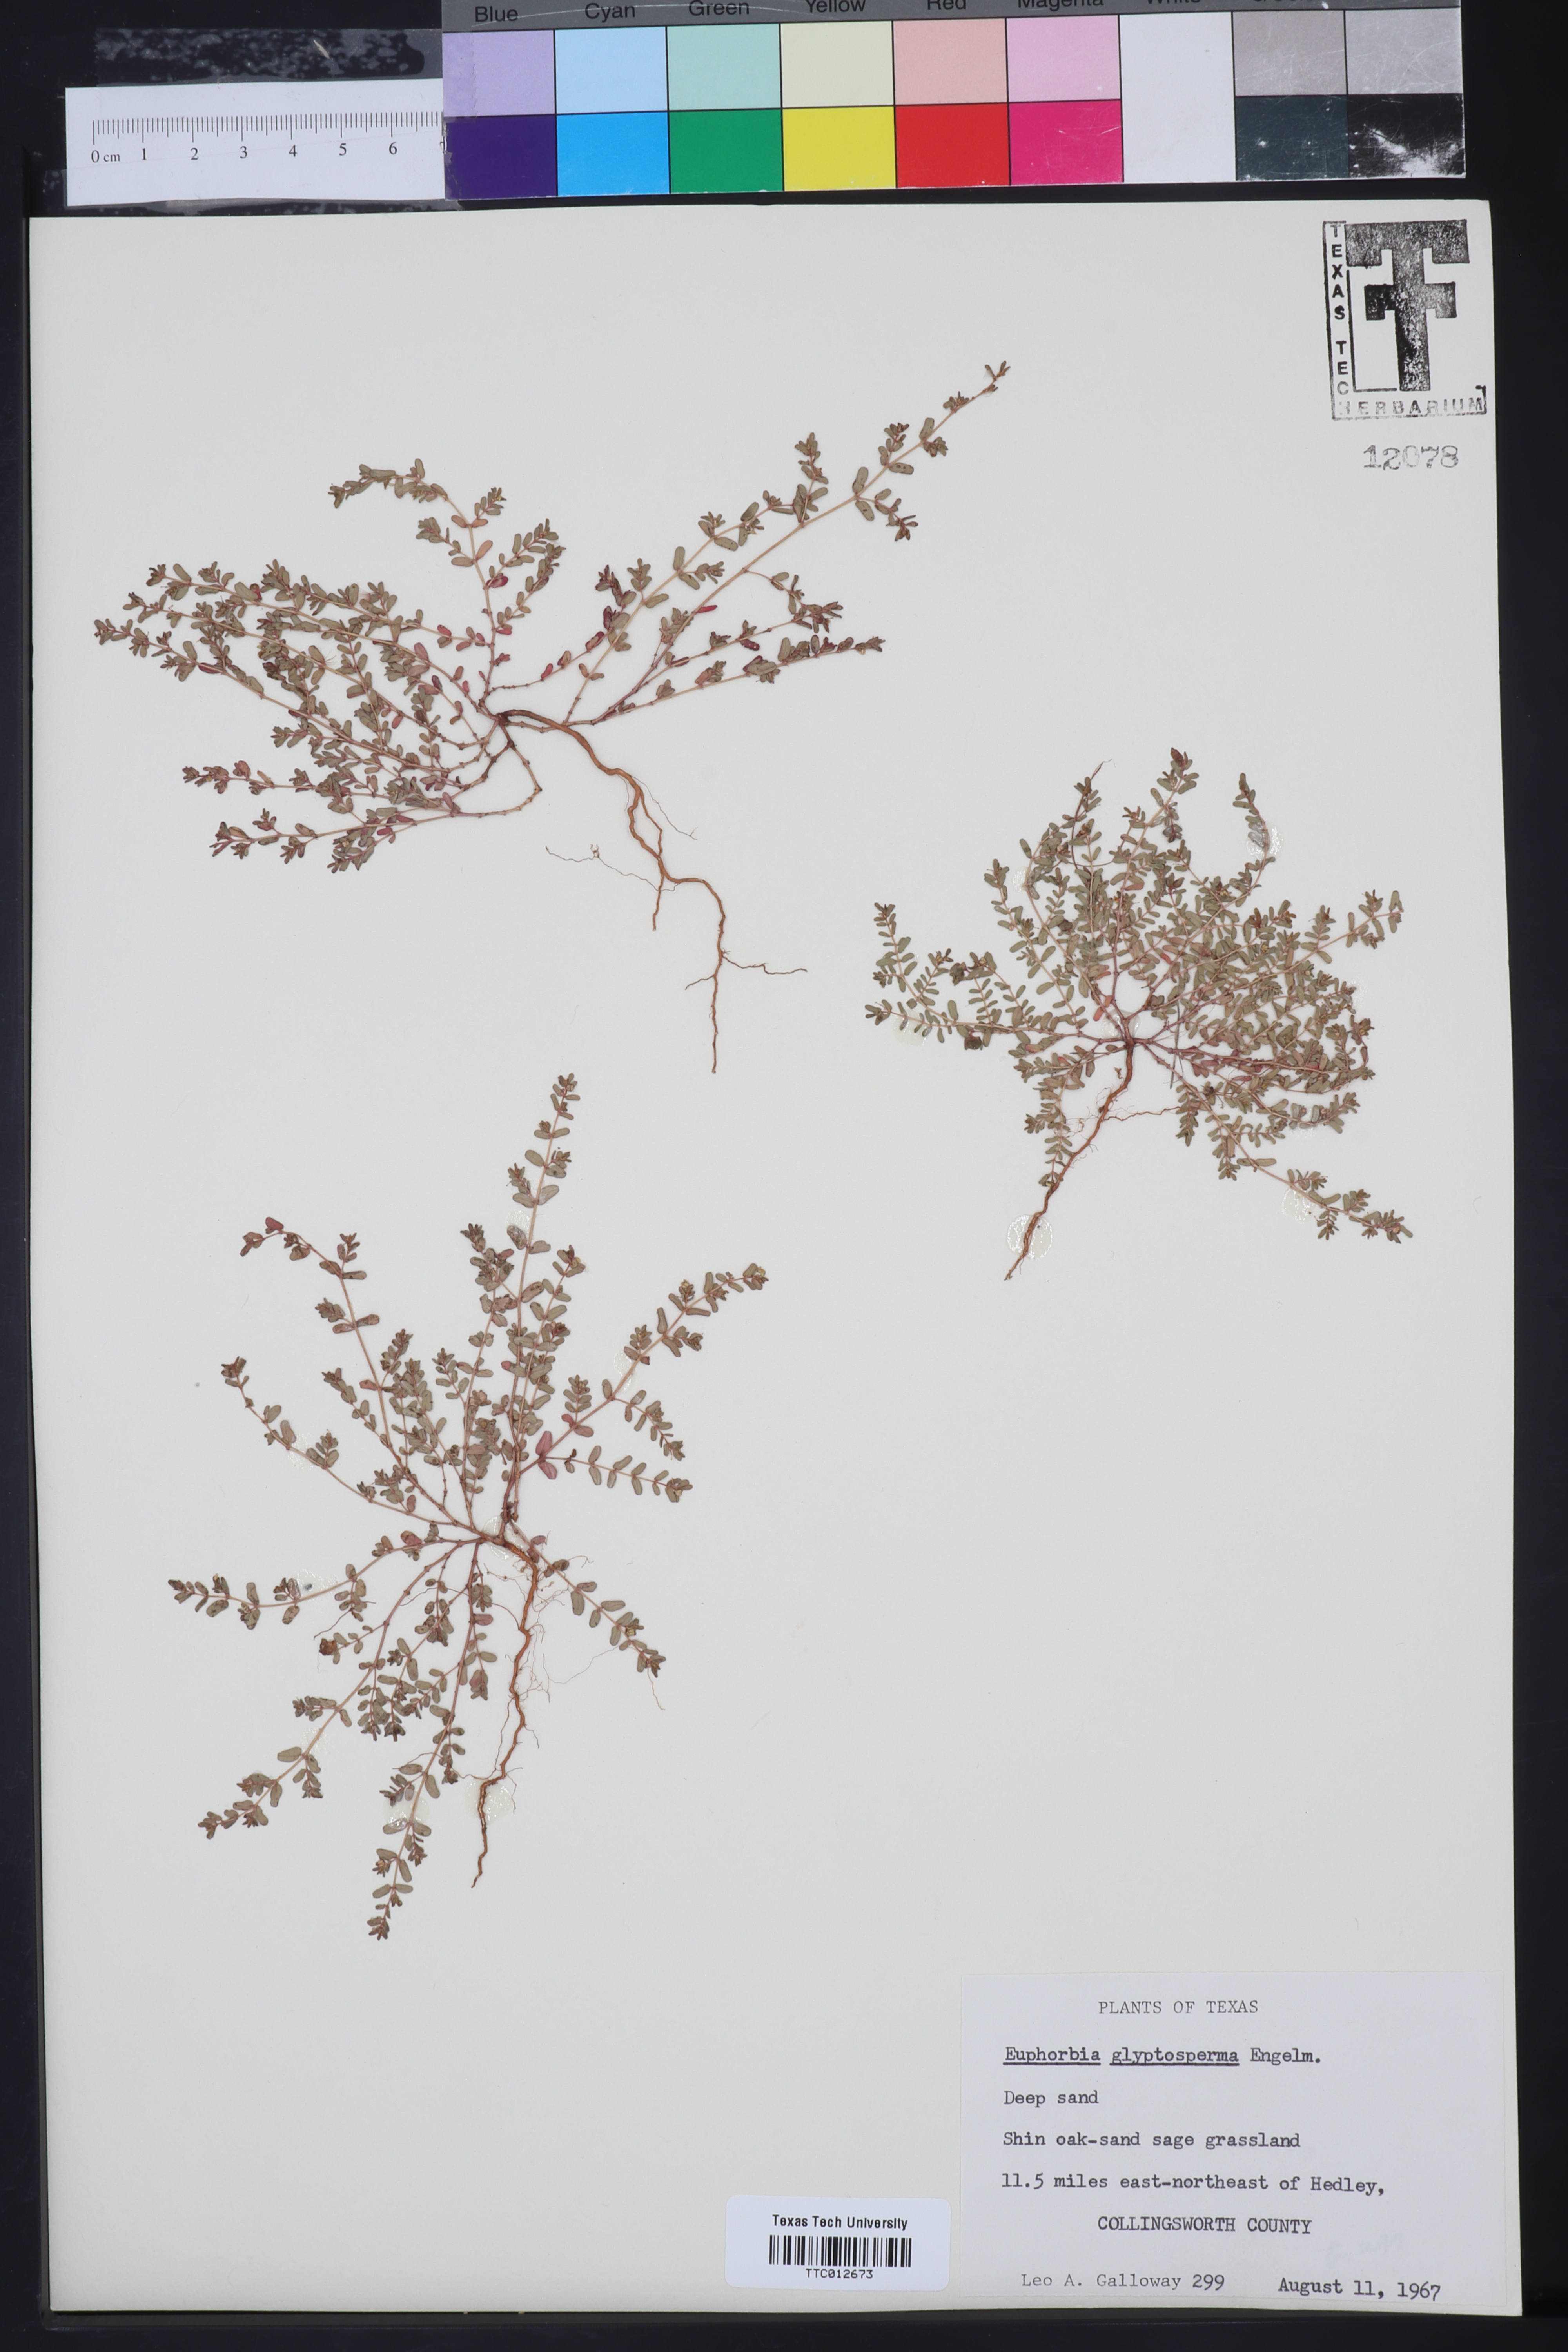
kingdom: Plantae
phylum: Tracheophyta
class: Magnoliopsida
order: Malpighiales
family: Euphorbiaceae
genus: Euphorbia
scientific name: Euphorbia glyptosperma
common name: Corrugate-seeded spurge
